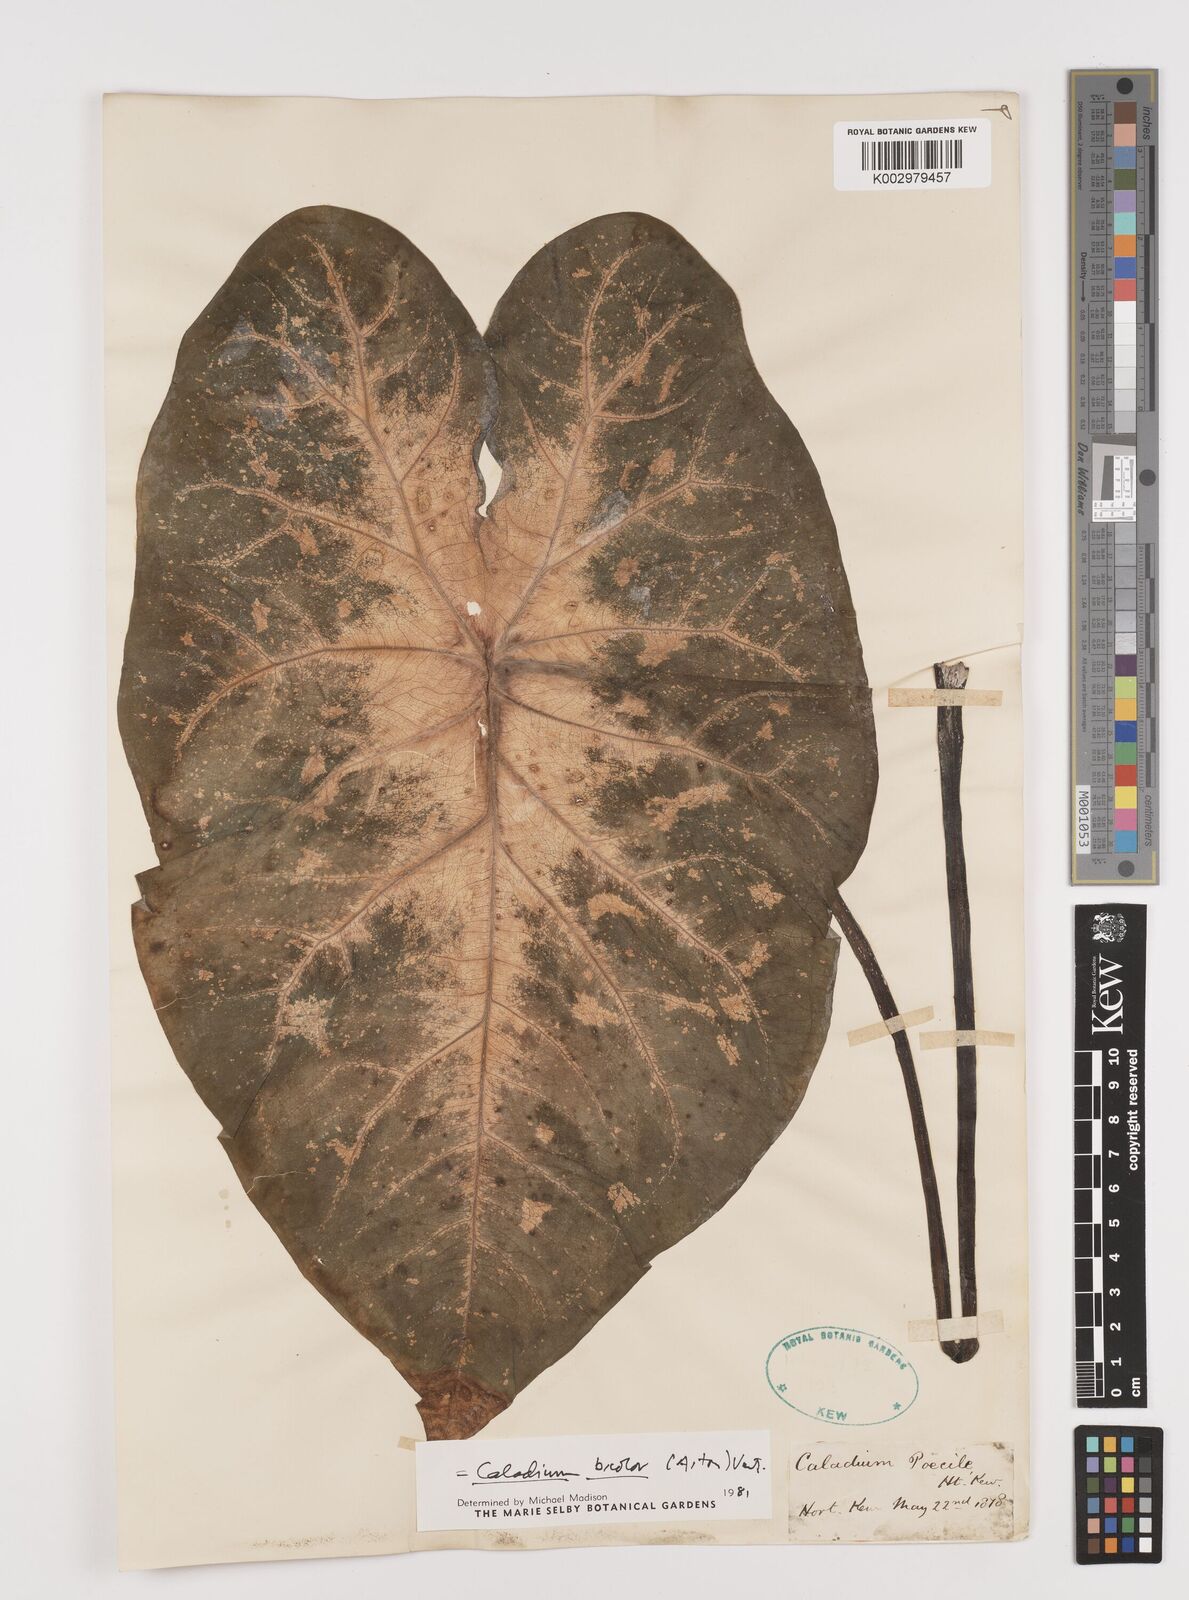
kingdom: Plantae
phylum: Tracheophyta
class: Liliopsida
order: Alismatales
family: Araceae
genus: Caladium
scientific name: Caladium bicolor
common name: Artist's pallet
